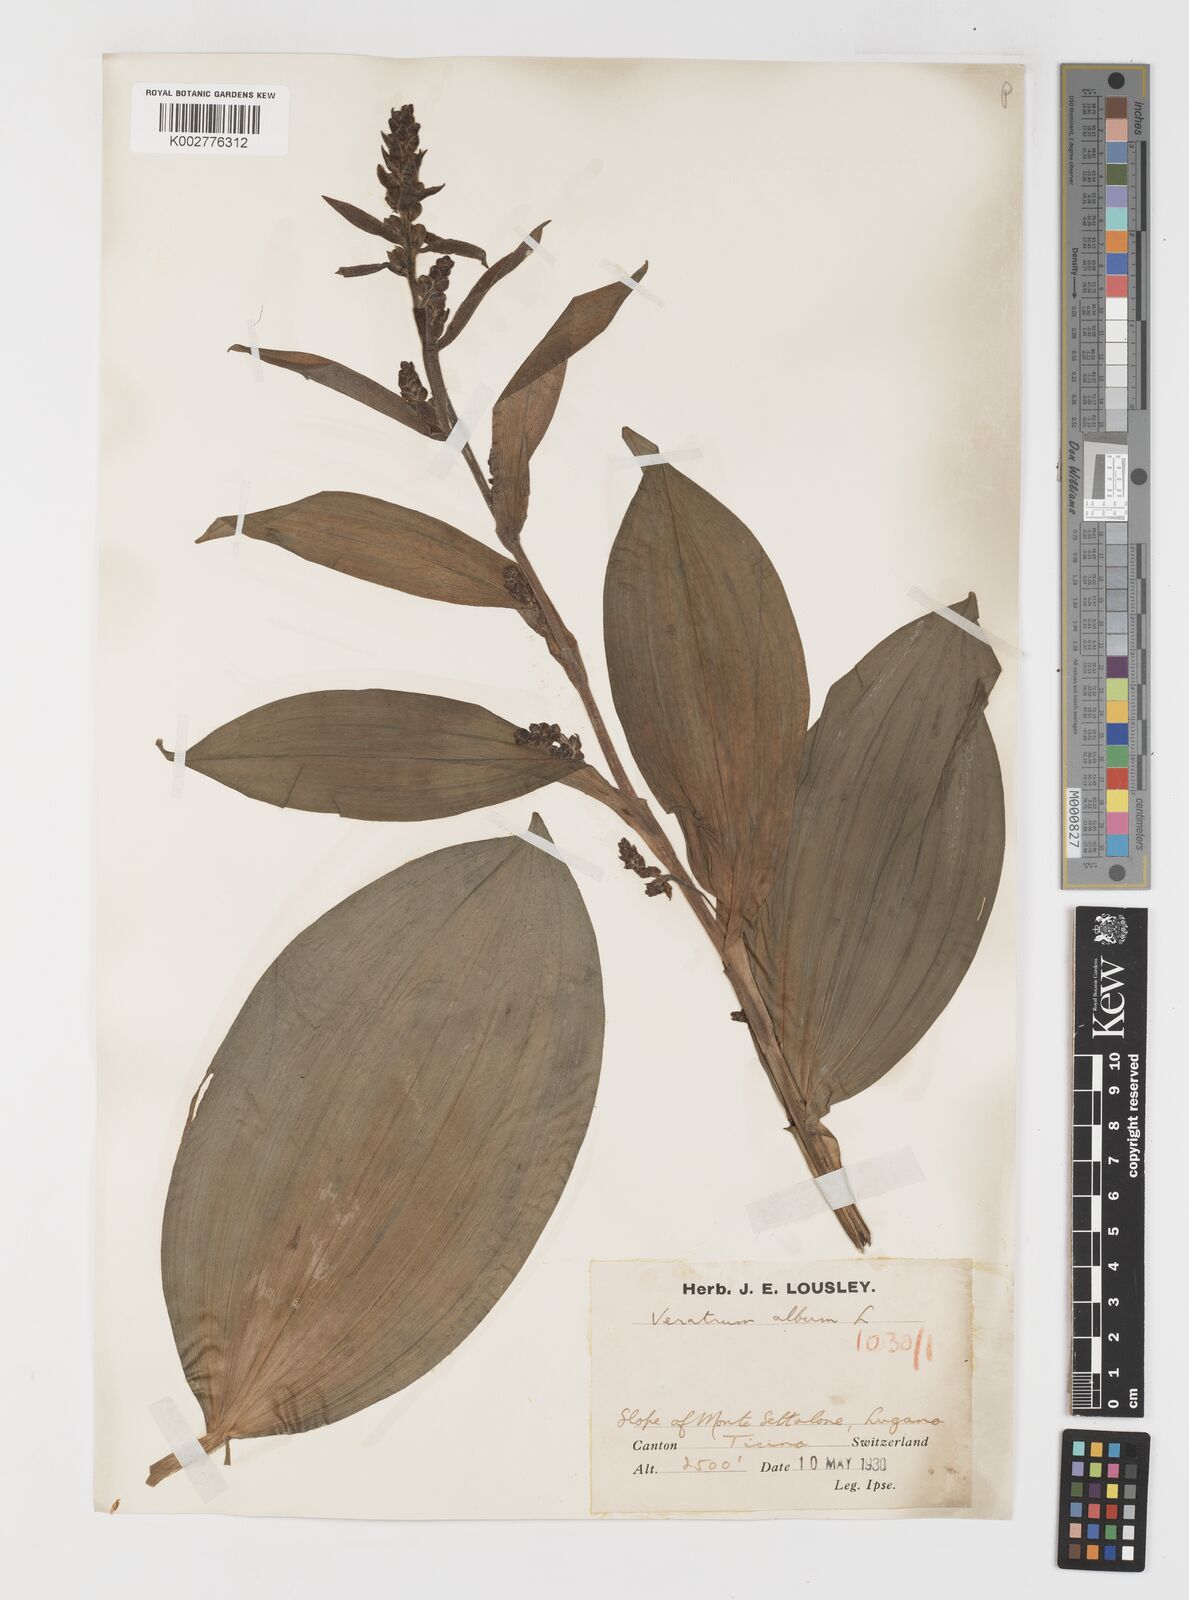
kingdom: Plantae
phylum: Tracheophyta
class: Liliopsida
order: Liliales
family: Melanthiaceae
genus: Veratrum
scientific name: Veratrum album
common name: White veratrum
